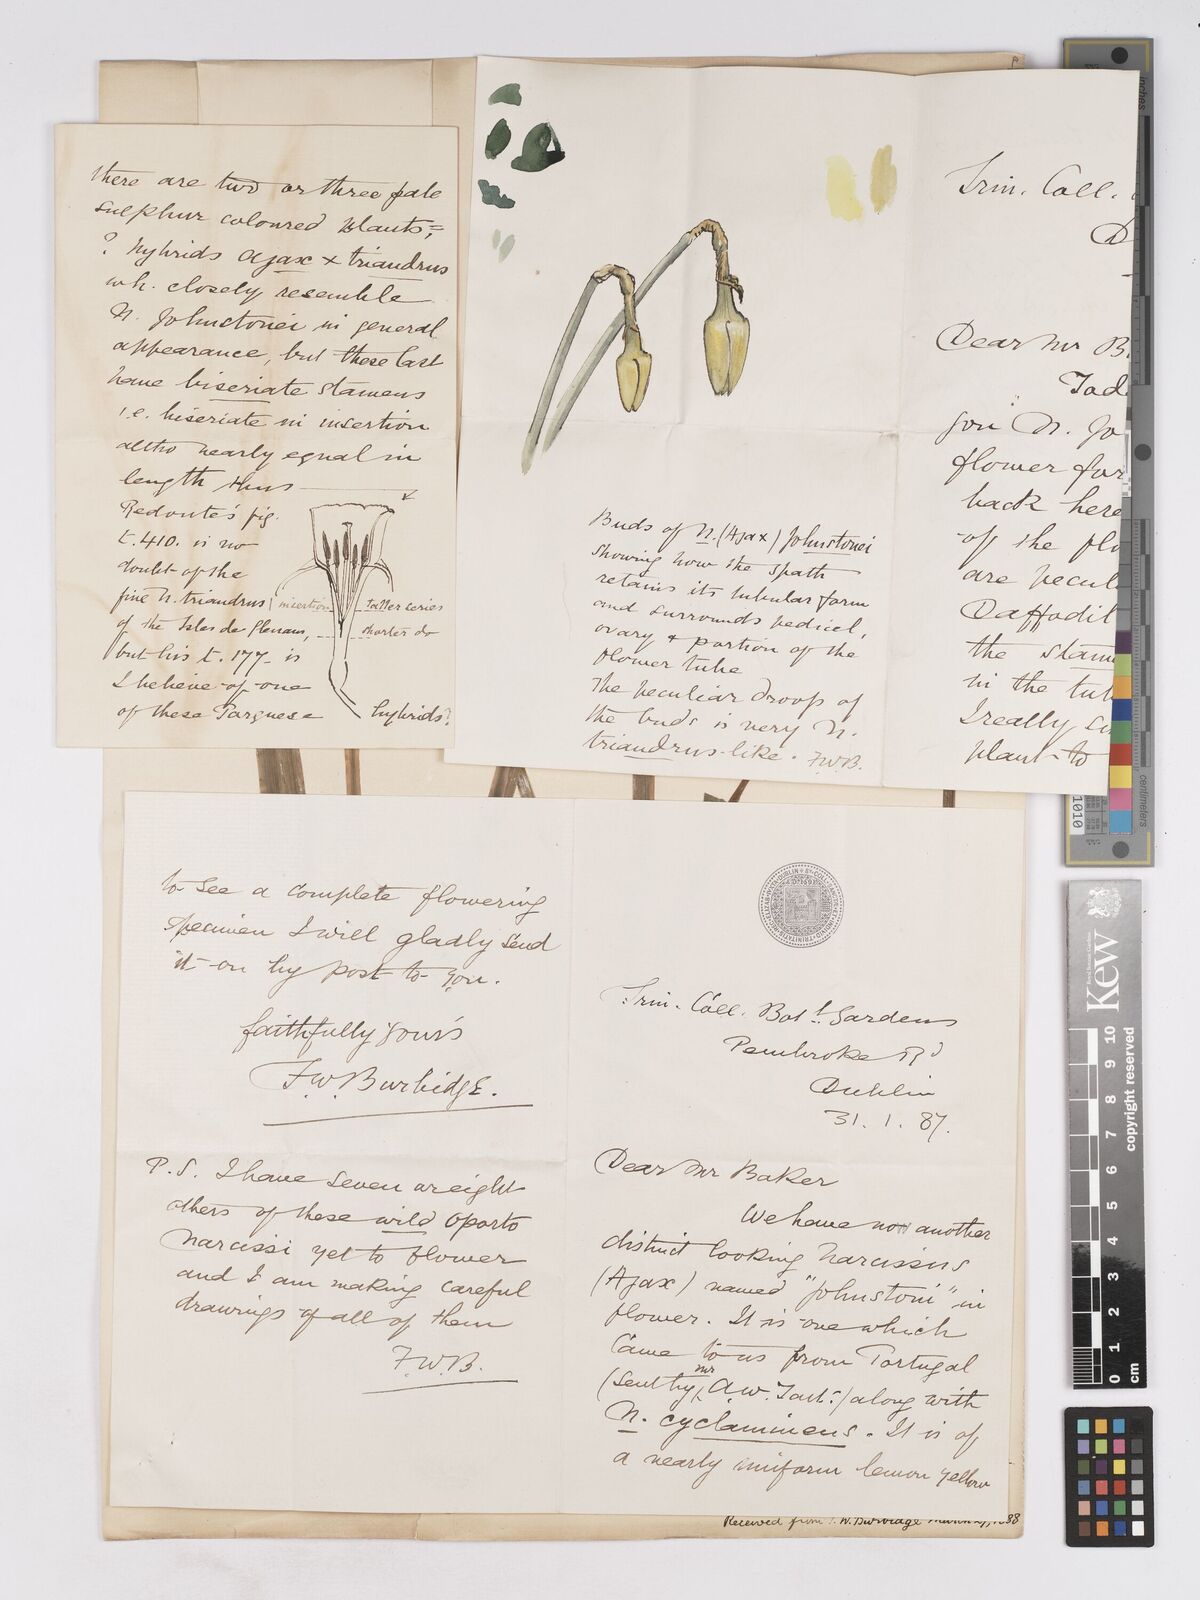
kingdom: Plantae
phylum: Tracheophyta
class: Liliopsida
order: Asparagales
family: Amaryllidaceae
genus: Narcissus
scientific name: Narcissus taitii
